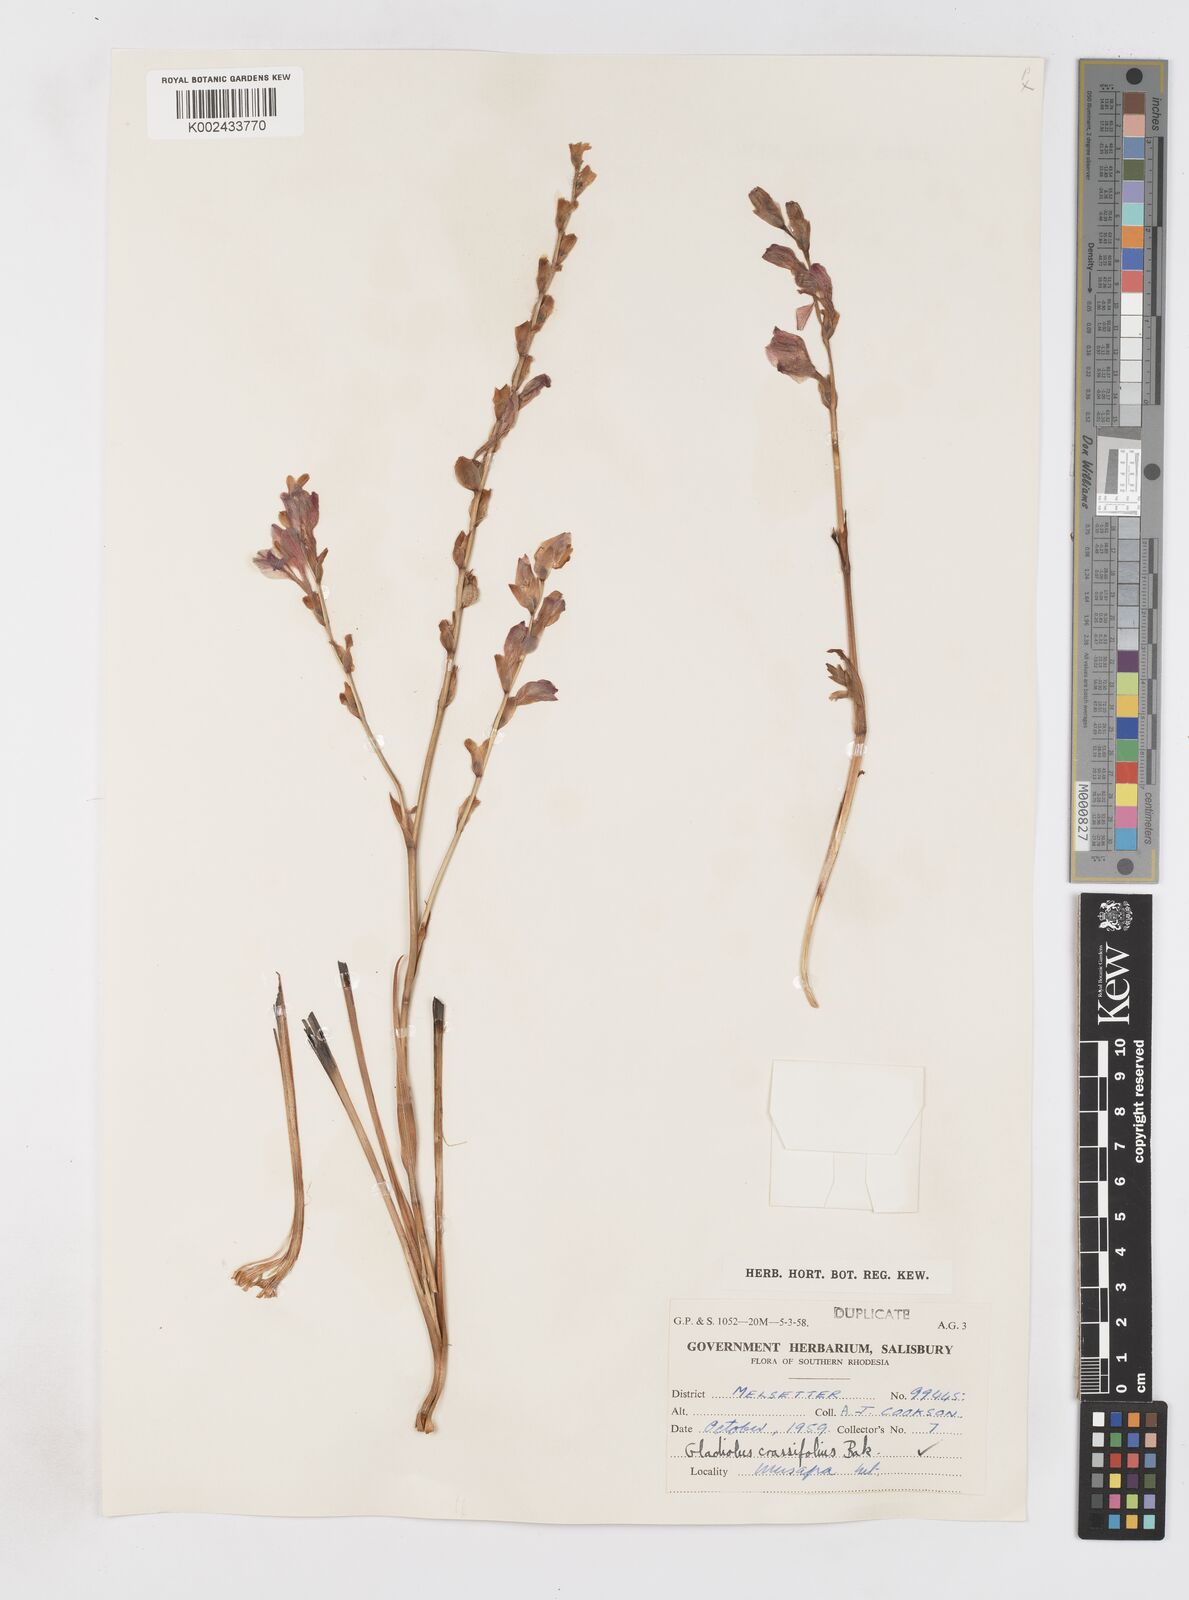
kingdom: Plantae
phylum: Tracheophyta
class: Liliopsida
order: Asparagales
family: Iridaceae
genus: Gladiolus
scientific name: Gladiolus crassifolius
